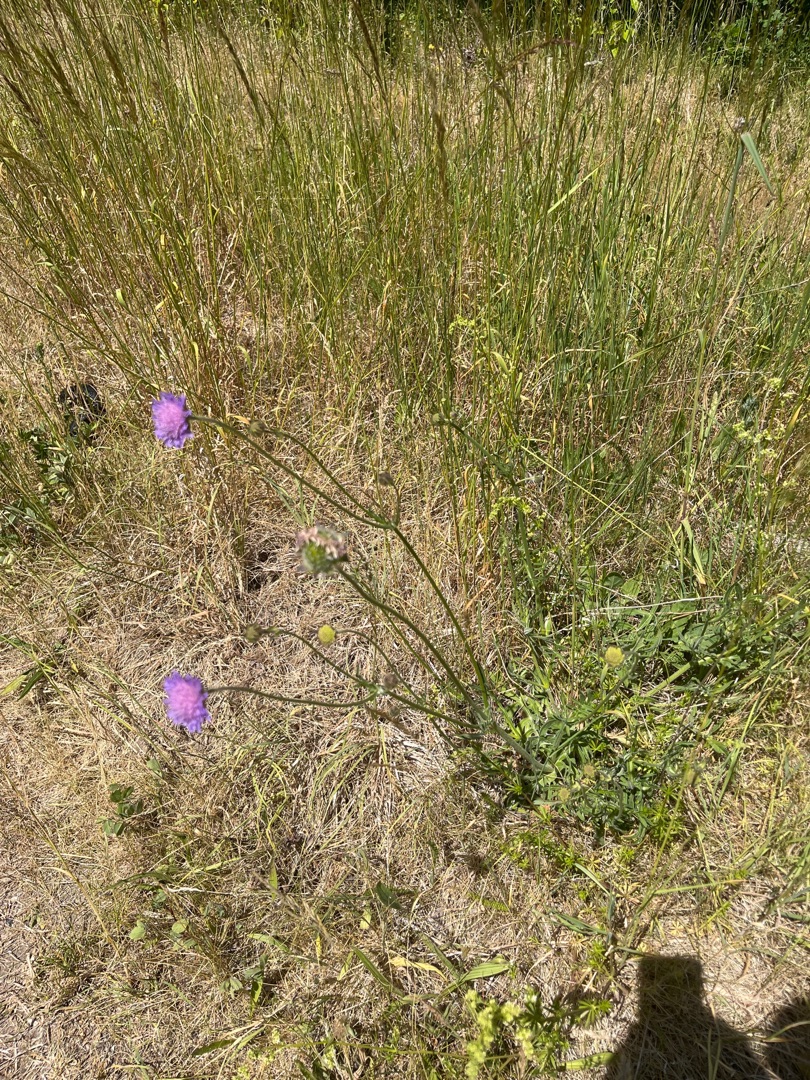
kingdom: Plantae
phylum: Tracheophyta
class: Magnoliopsida
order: Dipsacales
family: Caprifoliaceae
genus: Knautia
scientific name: Knautia arvensis
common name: Blåhat
